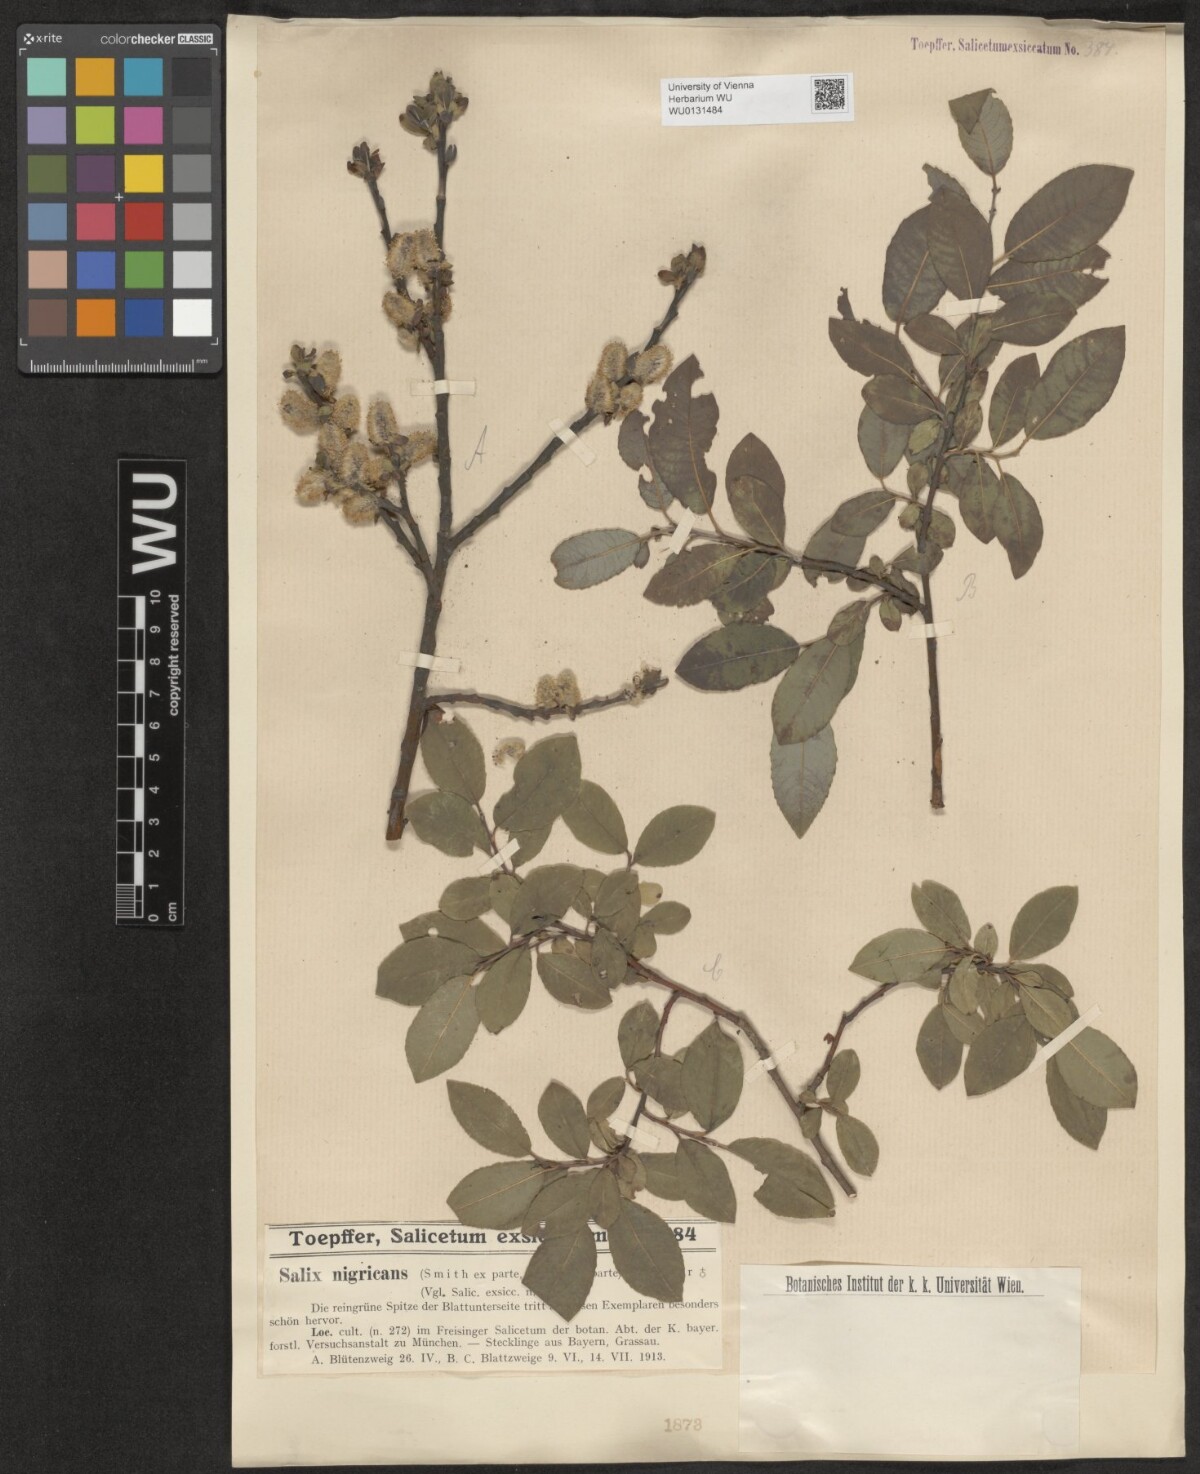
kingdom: Plantae
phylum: Tracheophyta
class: Magnoliopsida
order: Malpighiales
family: Salicaceae
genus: Salix
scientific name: Salix myrsinifolia
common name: Dark-leaved willow
